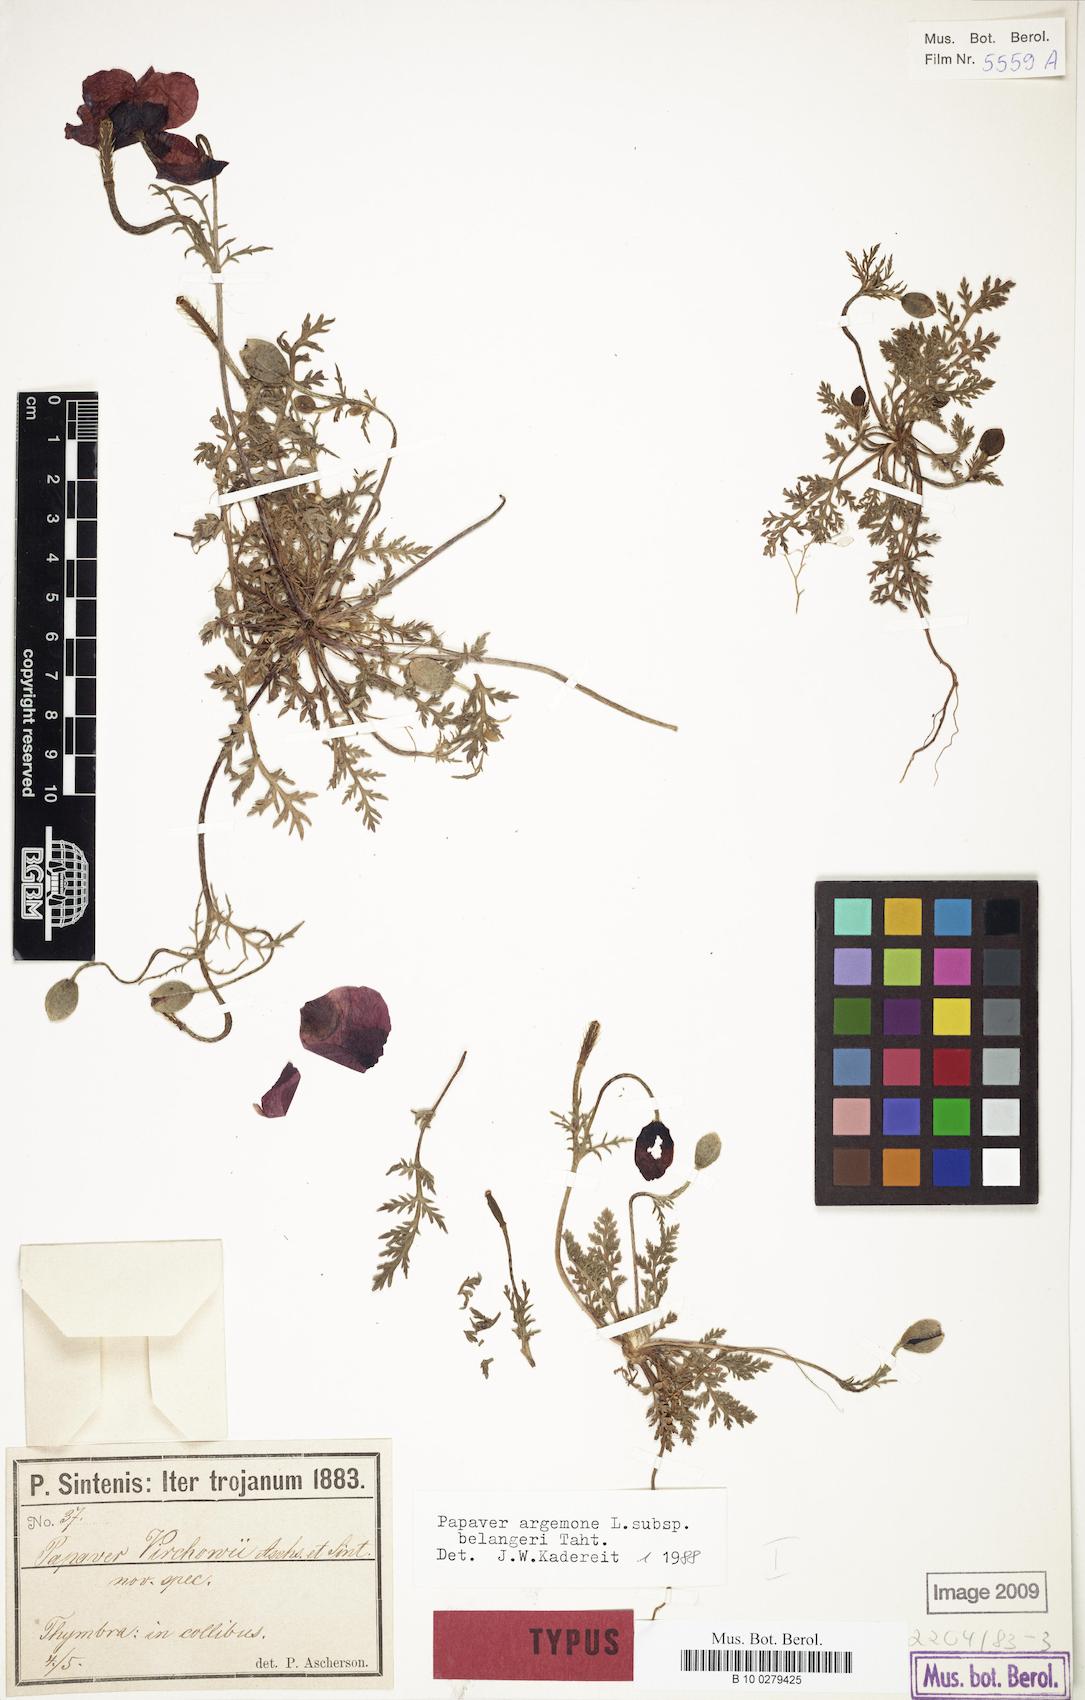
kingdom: Plantae
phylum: Tracheophyta
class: Magnoliopsida
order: Ranunculales
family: Papaveraceae
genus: Roemeria
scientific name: Roemeria minor
